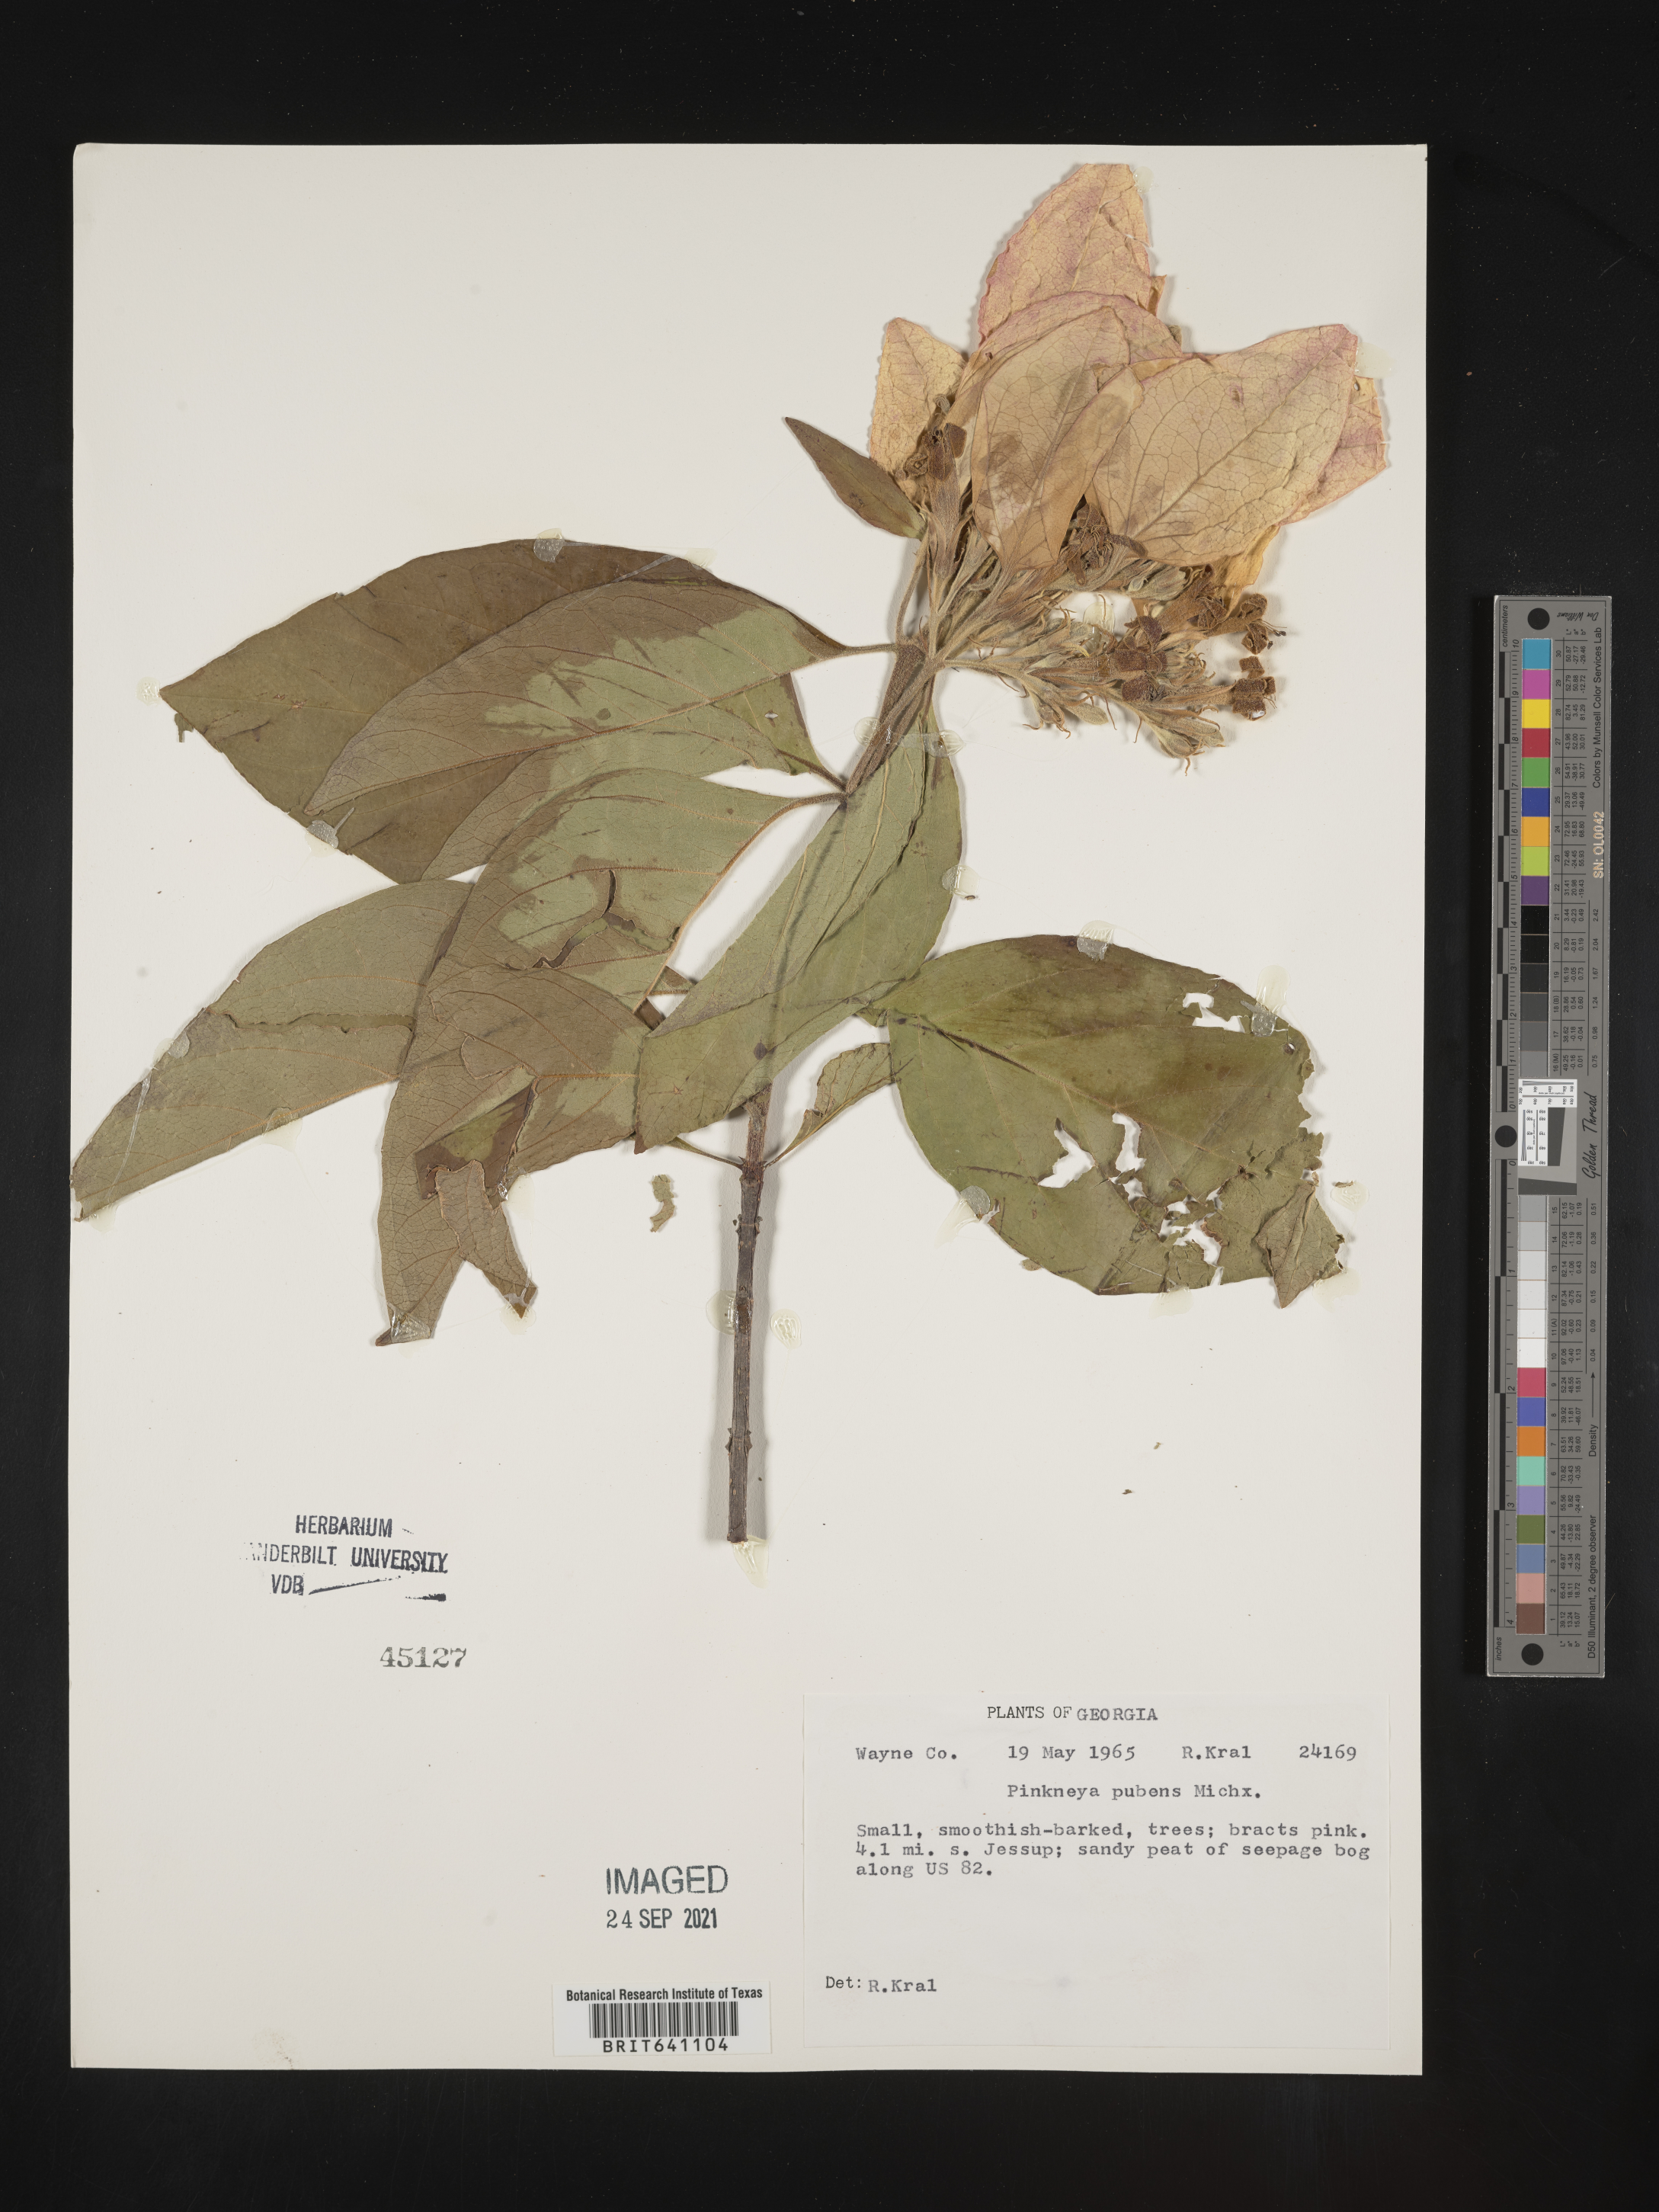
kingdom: Plantae
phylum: Tracheophyta
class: Magnoliopsida
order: Gentianales
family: Rubiaceae
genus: Pinckneya
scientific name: Pinckneya pubens
